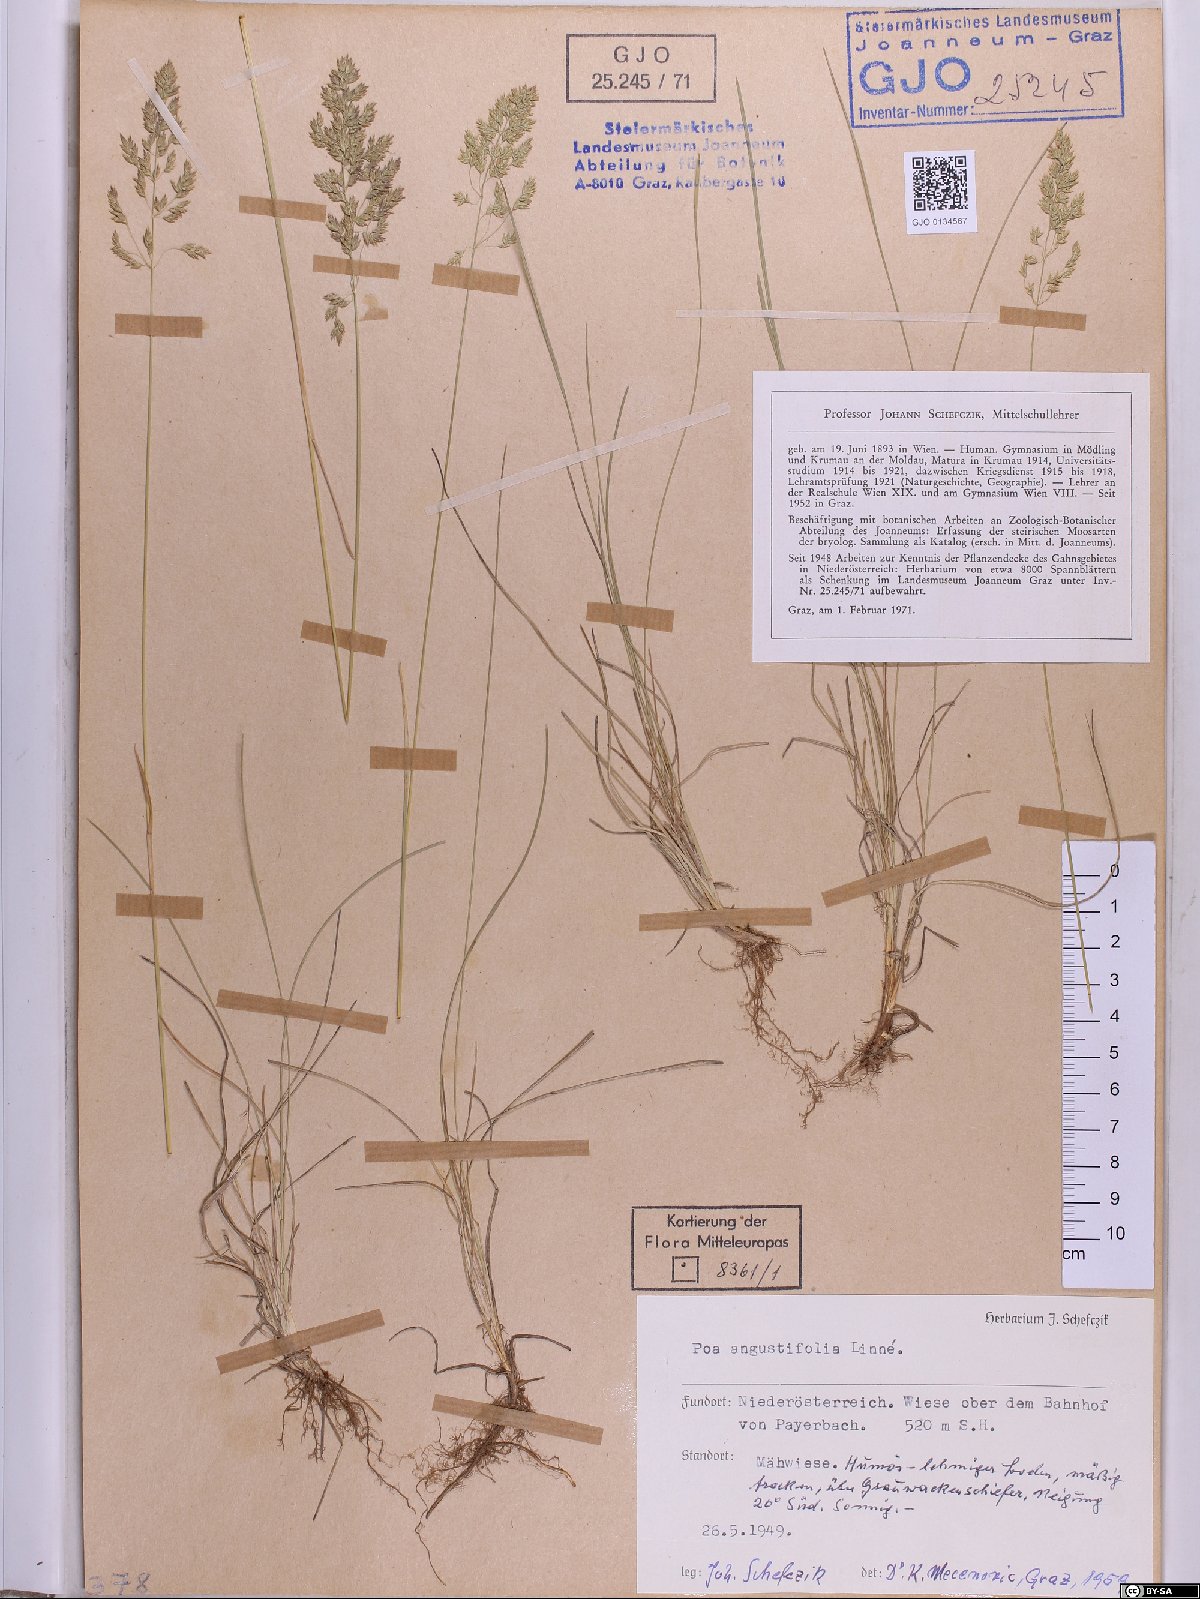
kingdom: Plantae
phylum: Tracheophyta
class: Liliopsida
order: Poales
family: Poaceae
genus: Poa
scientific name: Poa angustifolia
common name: Narrow-leaved meadow-grass
